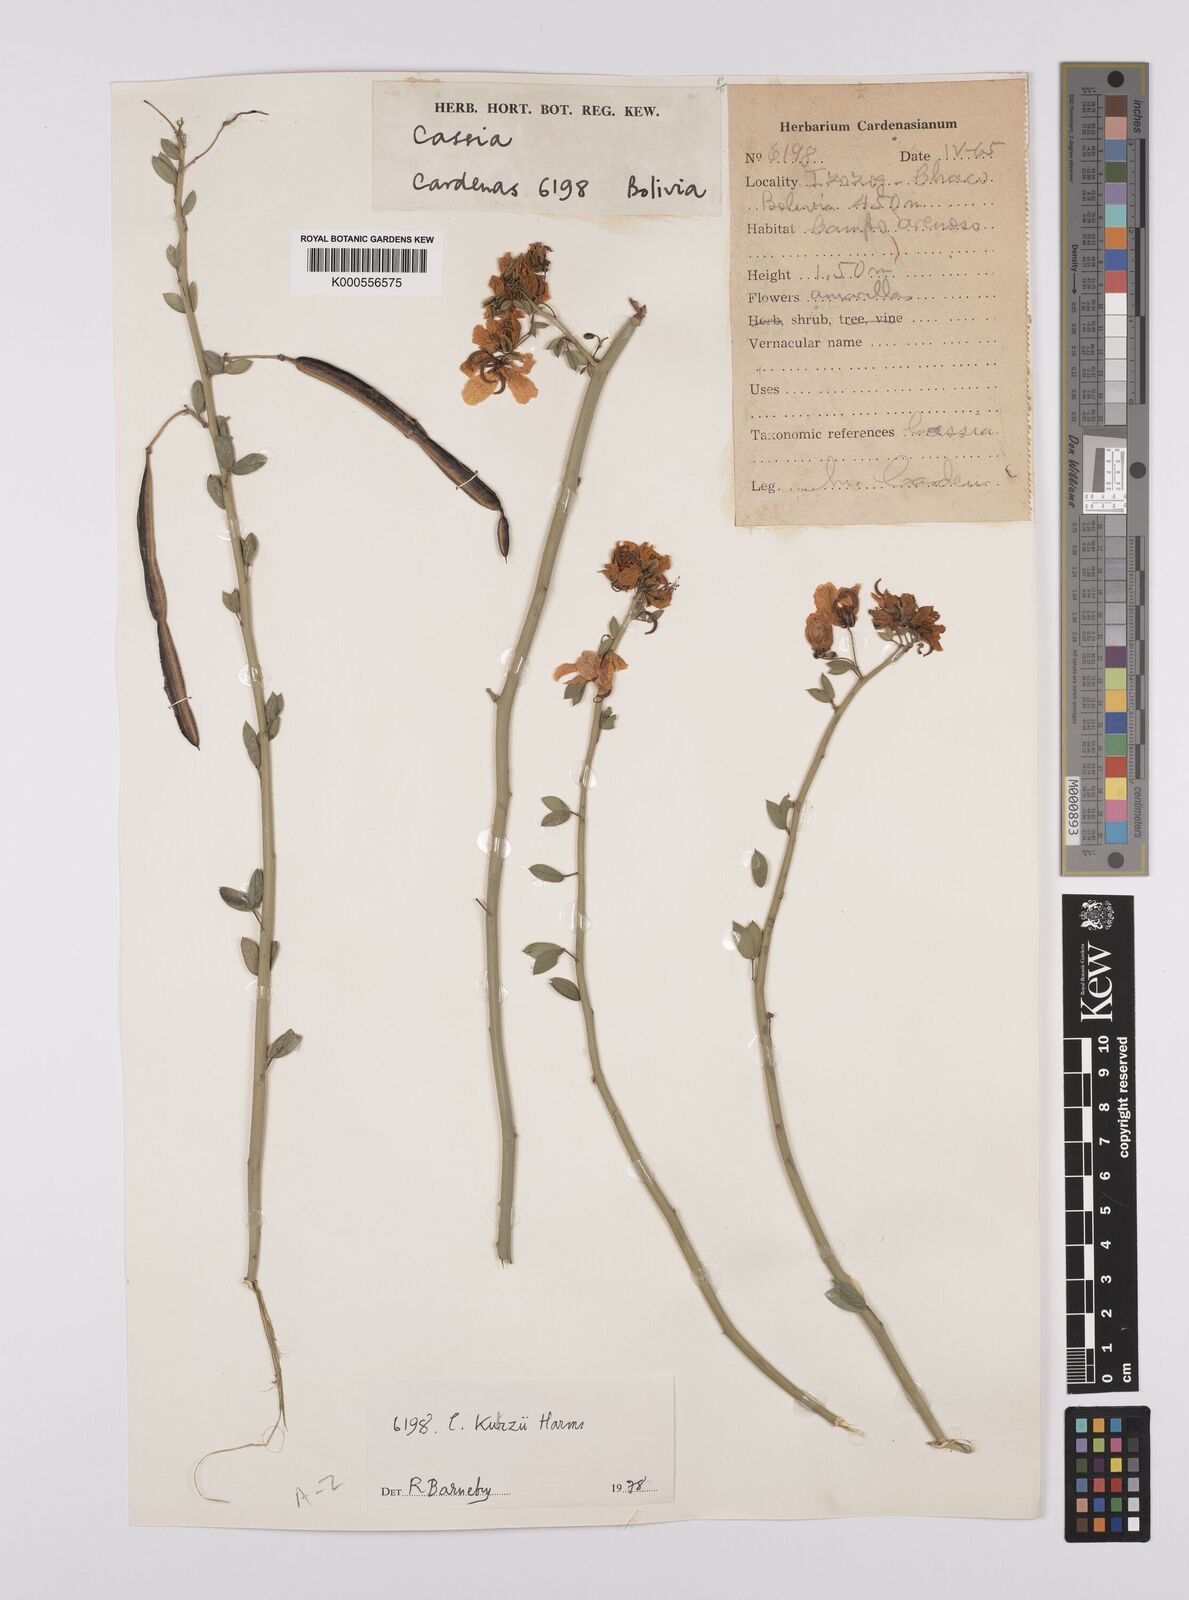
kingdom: Plantae
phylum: Tracheophyta
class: Magnoliopsida
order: Fabales
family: Fabaceae
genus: Senna
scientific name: Senna kurtzii
